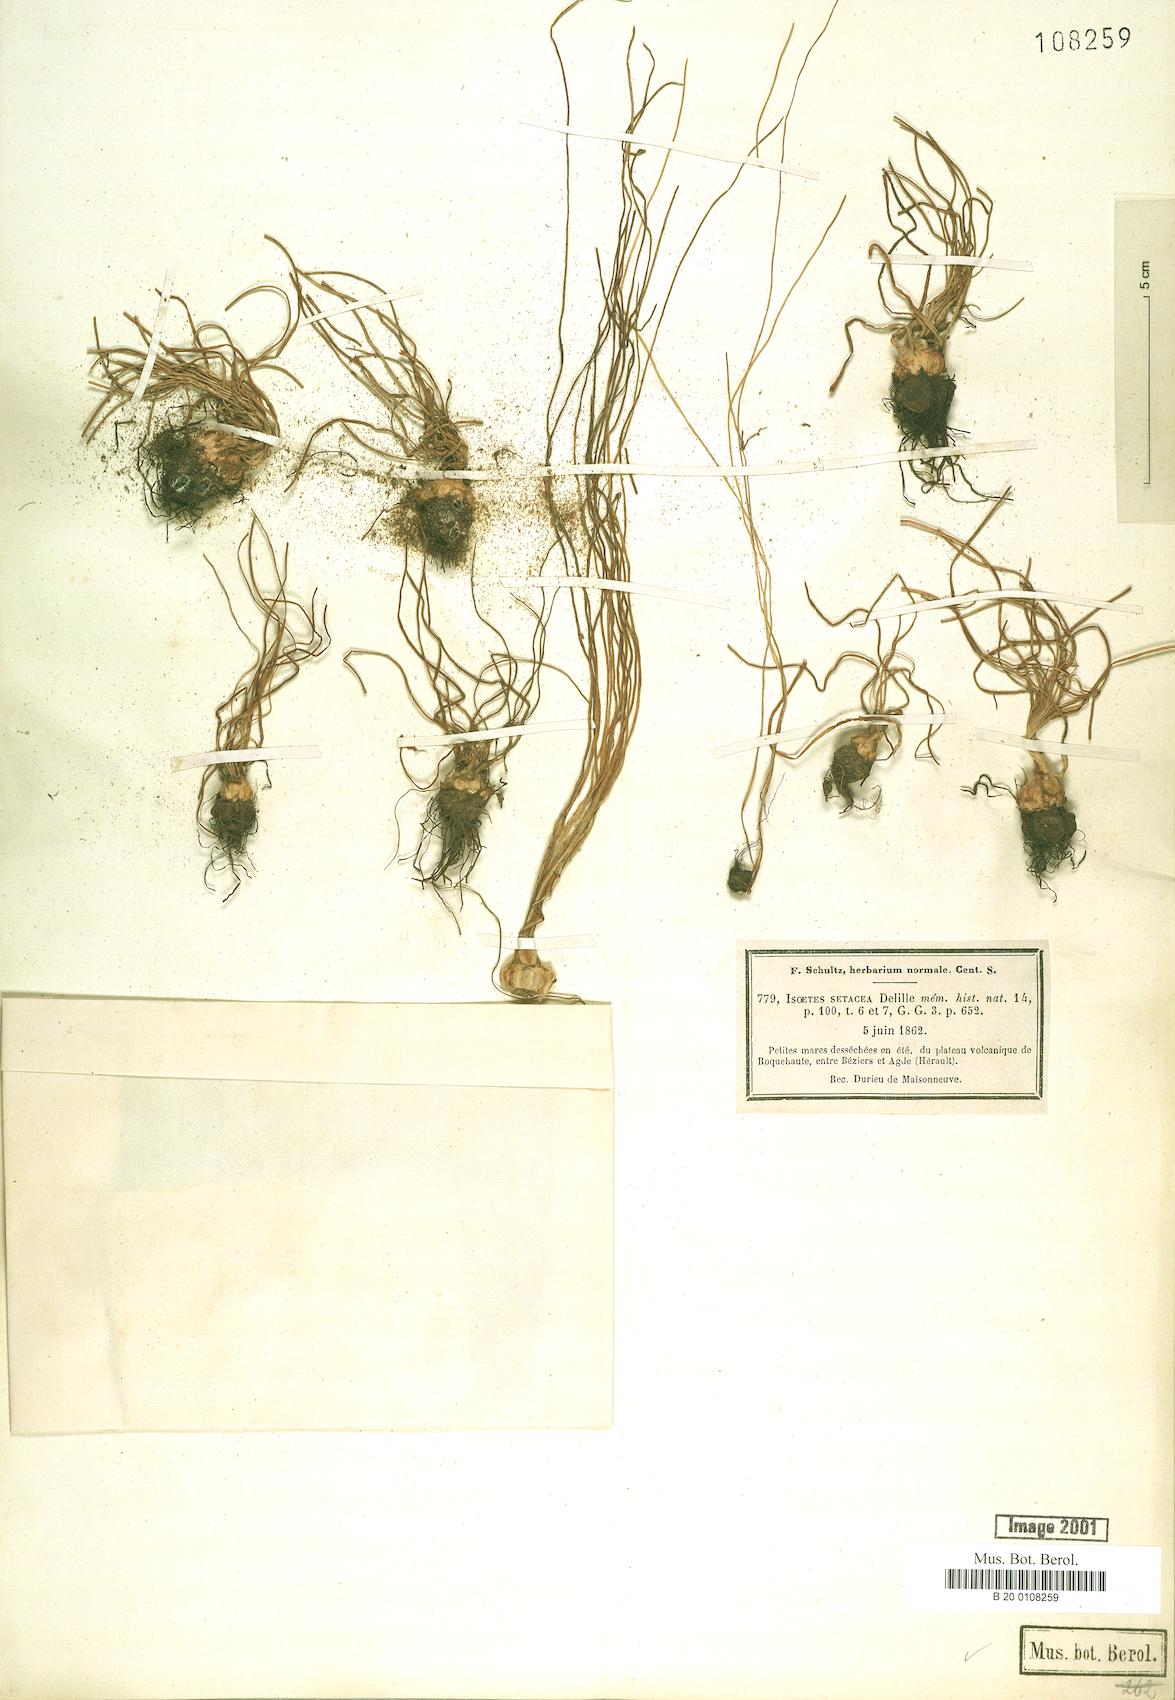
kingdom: Plantae
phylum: Tracheophyta
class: Lycopodiopsida
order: Isoetales
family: Isoetaceae
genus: Isoetes
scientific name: Isoetes lacustris
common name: Common quillwort
